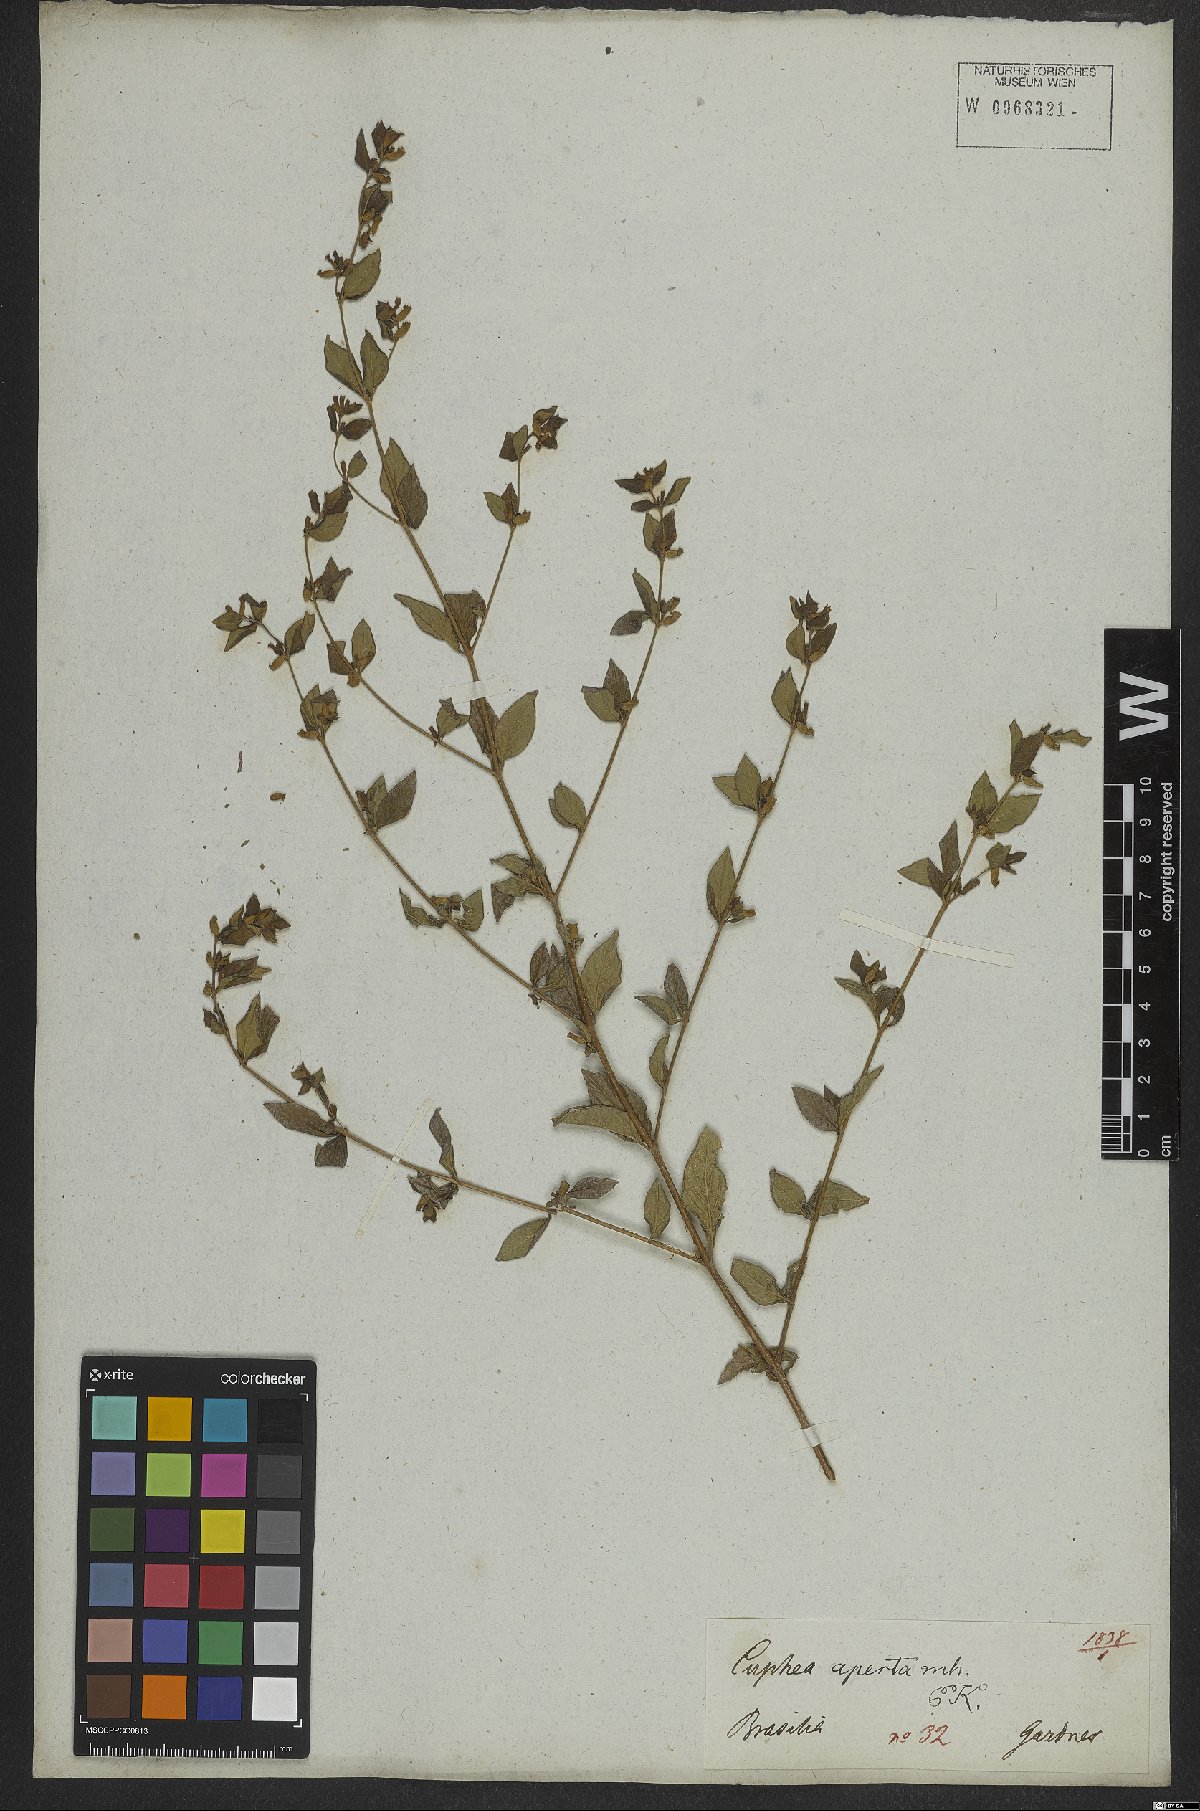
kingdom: Plantae
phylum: Tracheophyta
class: Magnoliopsida
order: Myrtales
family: Lythraceae
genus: Cuphea
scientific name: Cuphea aperta
